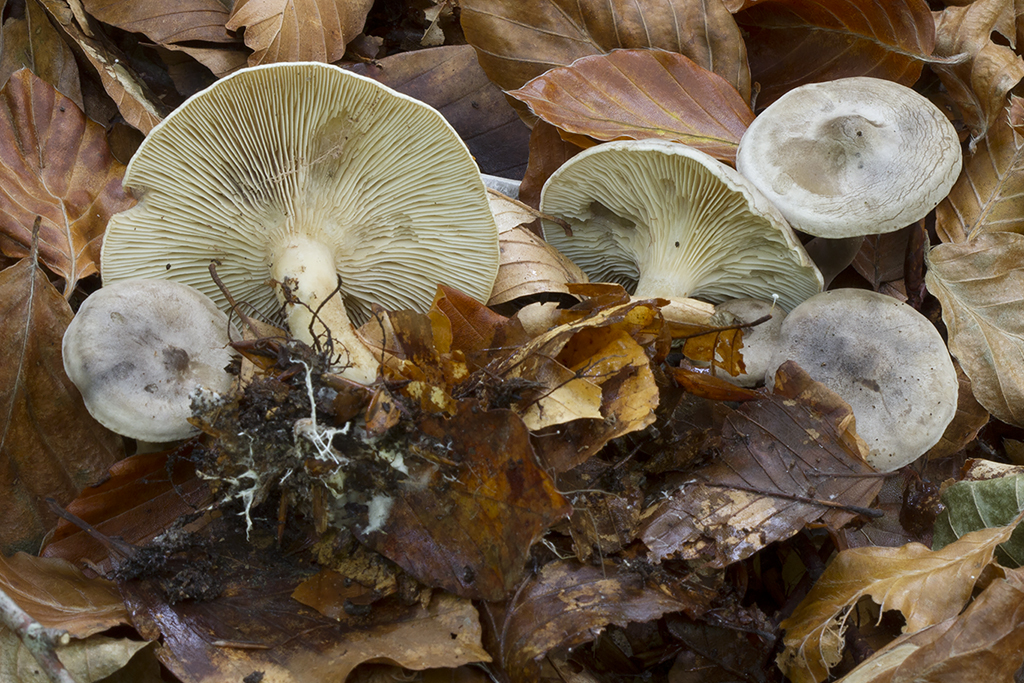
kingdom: Fungi
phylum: Basidiomycota
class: Agaricomycetes
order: Agaricales
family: Tricholomataceae
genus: Lulesia
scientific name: Lulesia
